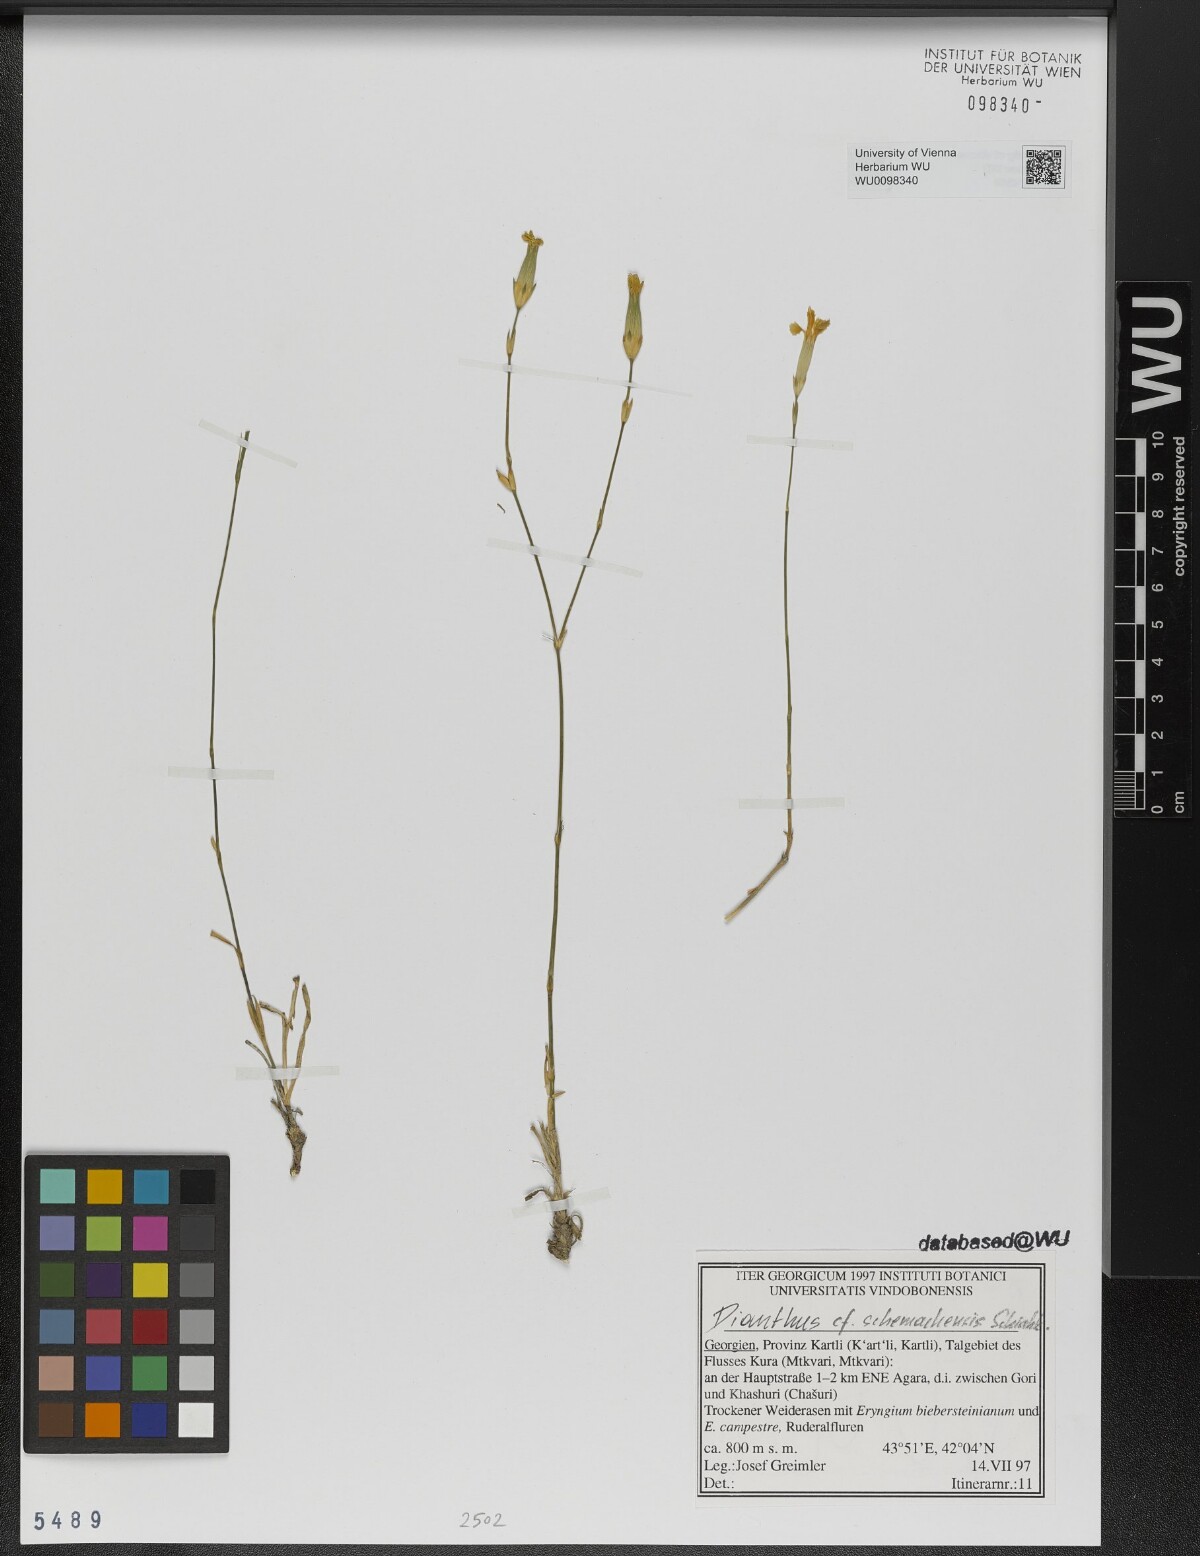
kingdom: Plantae
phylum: Tracheophyta
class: Magnoliopsida
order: Caryophyllales
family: Caryophyllaceae
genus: Dianthus
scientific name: Dianthus schemachensis
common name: Shemakhian pink
